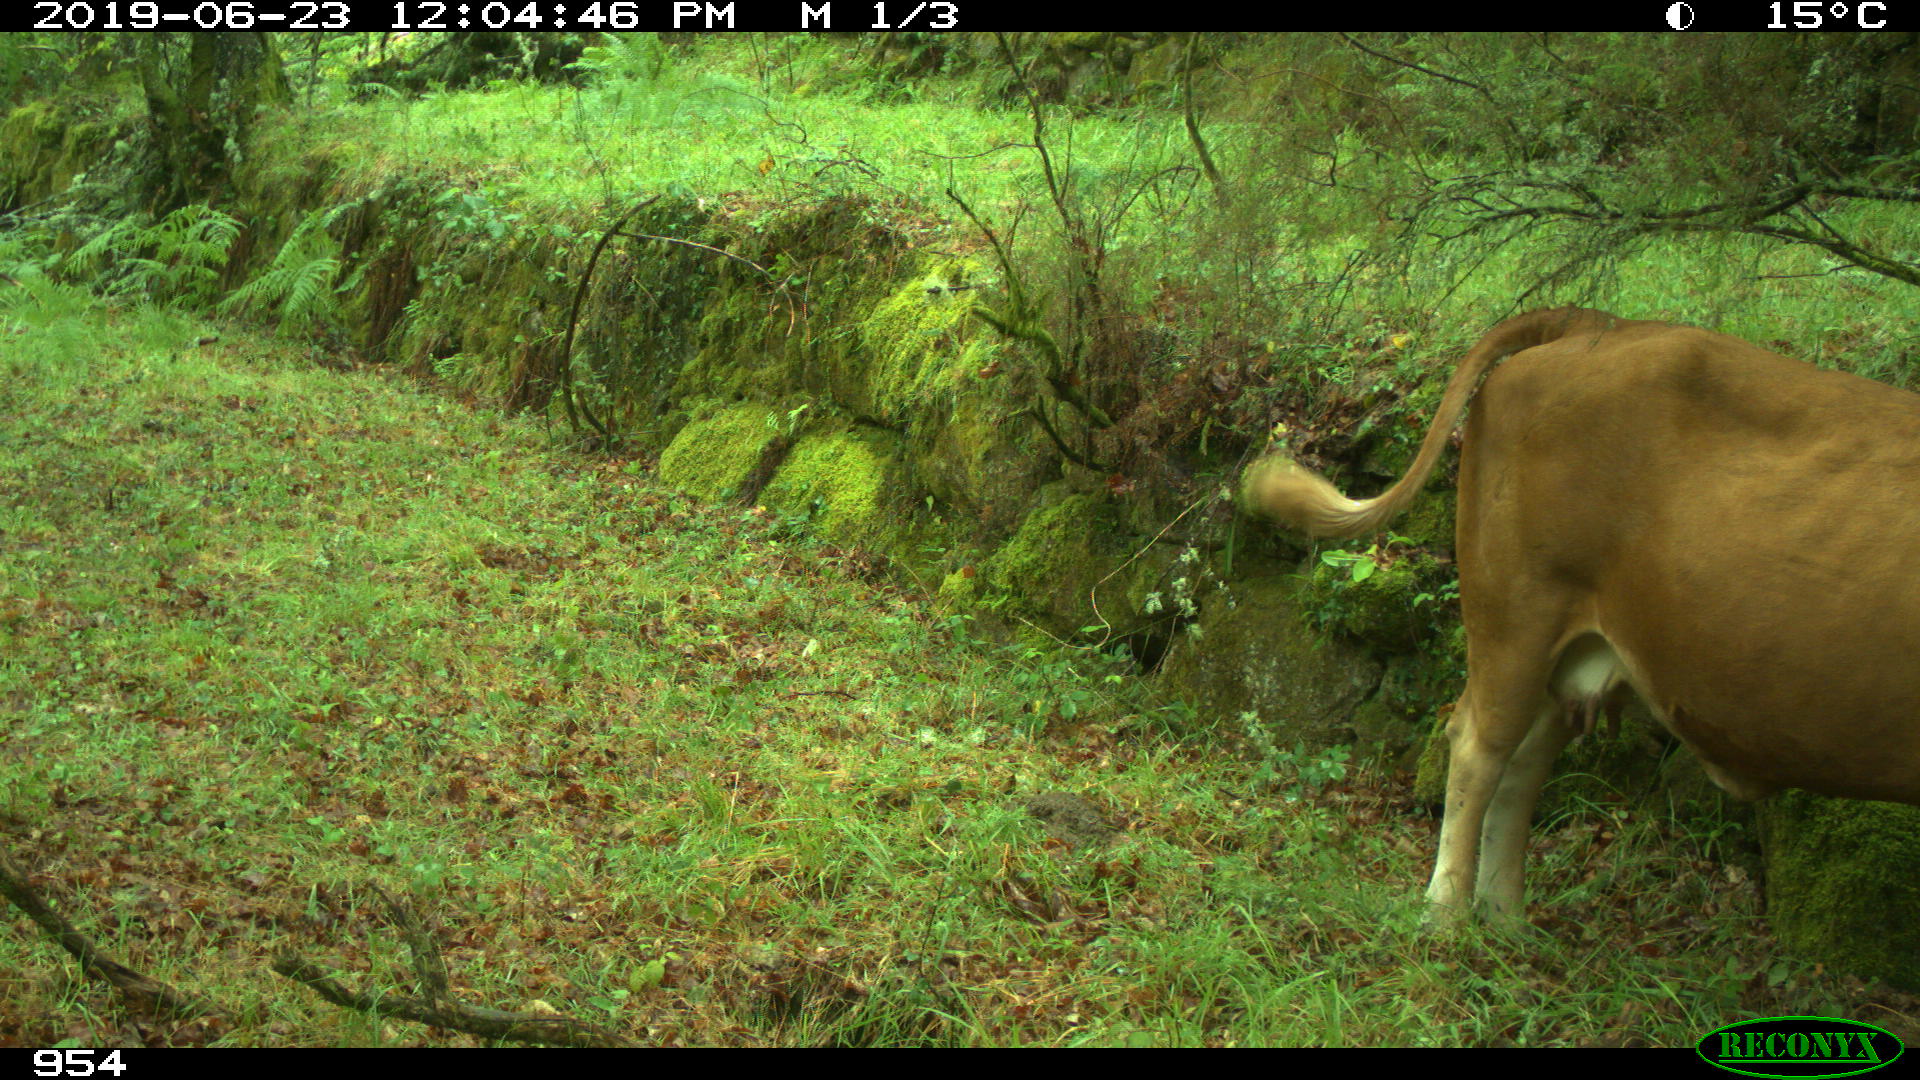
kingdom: Animalia
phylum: Chordata
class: Mammalia
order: Artiodactyla
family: Bovidae
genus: Bos
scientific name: Bos taurus
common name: Domesticated cattle
